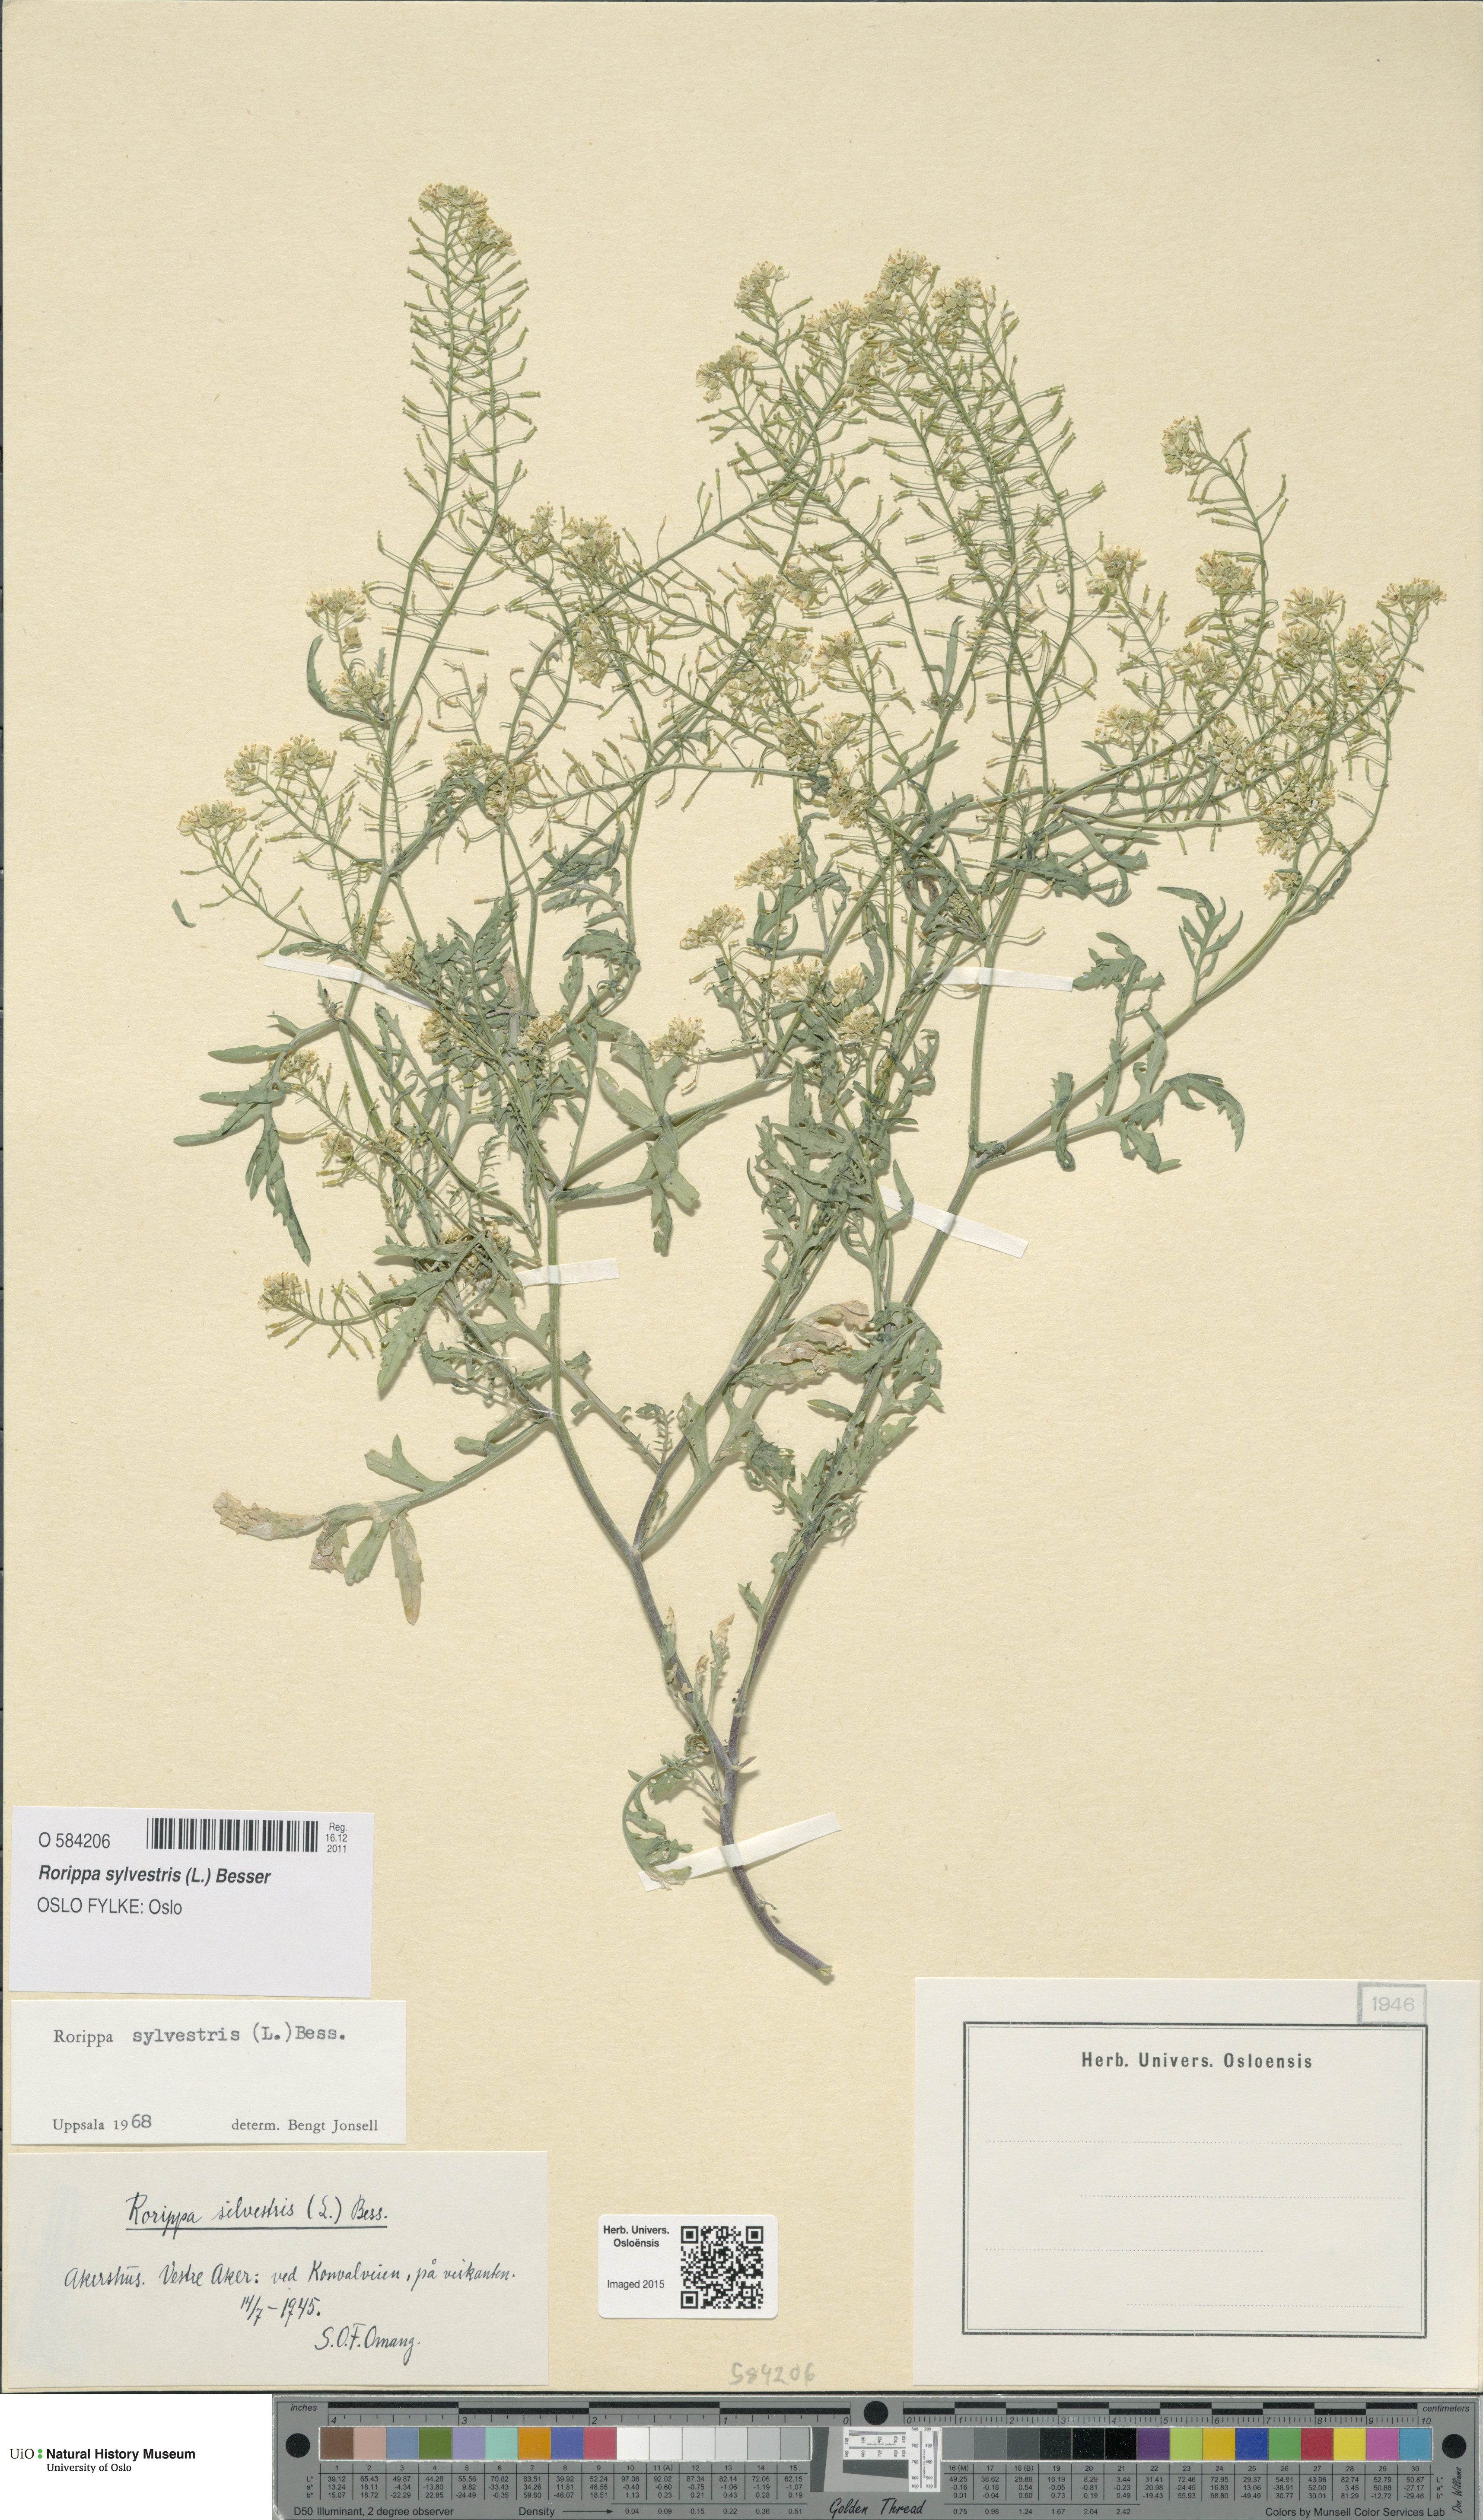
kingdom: Plantae
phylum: Tracheophyta
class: Magnoliopsida
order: Brassicales
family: Brassicaceae
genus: Rorippa
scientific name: Rorippa sylvestris
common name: Creeping yellowcress
